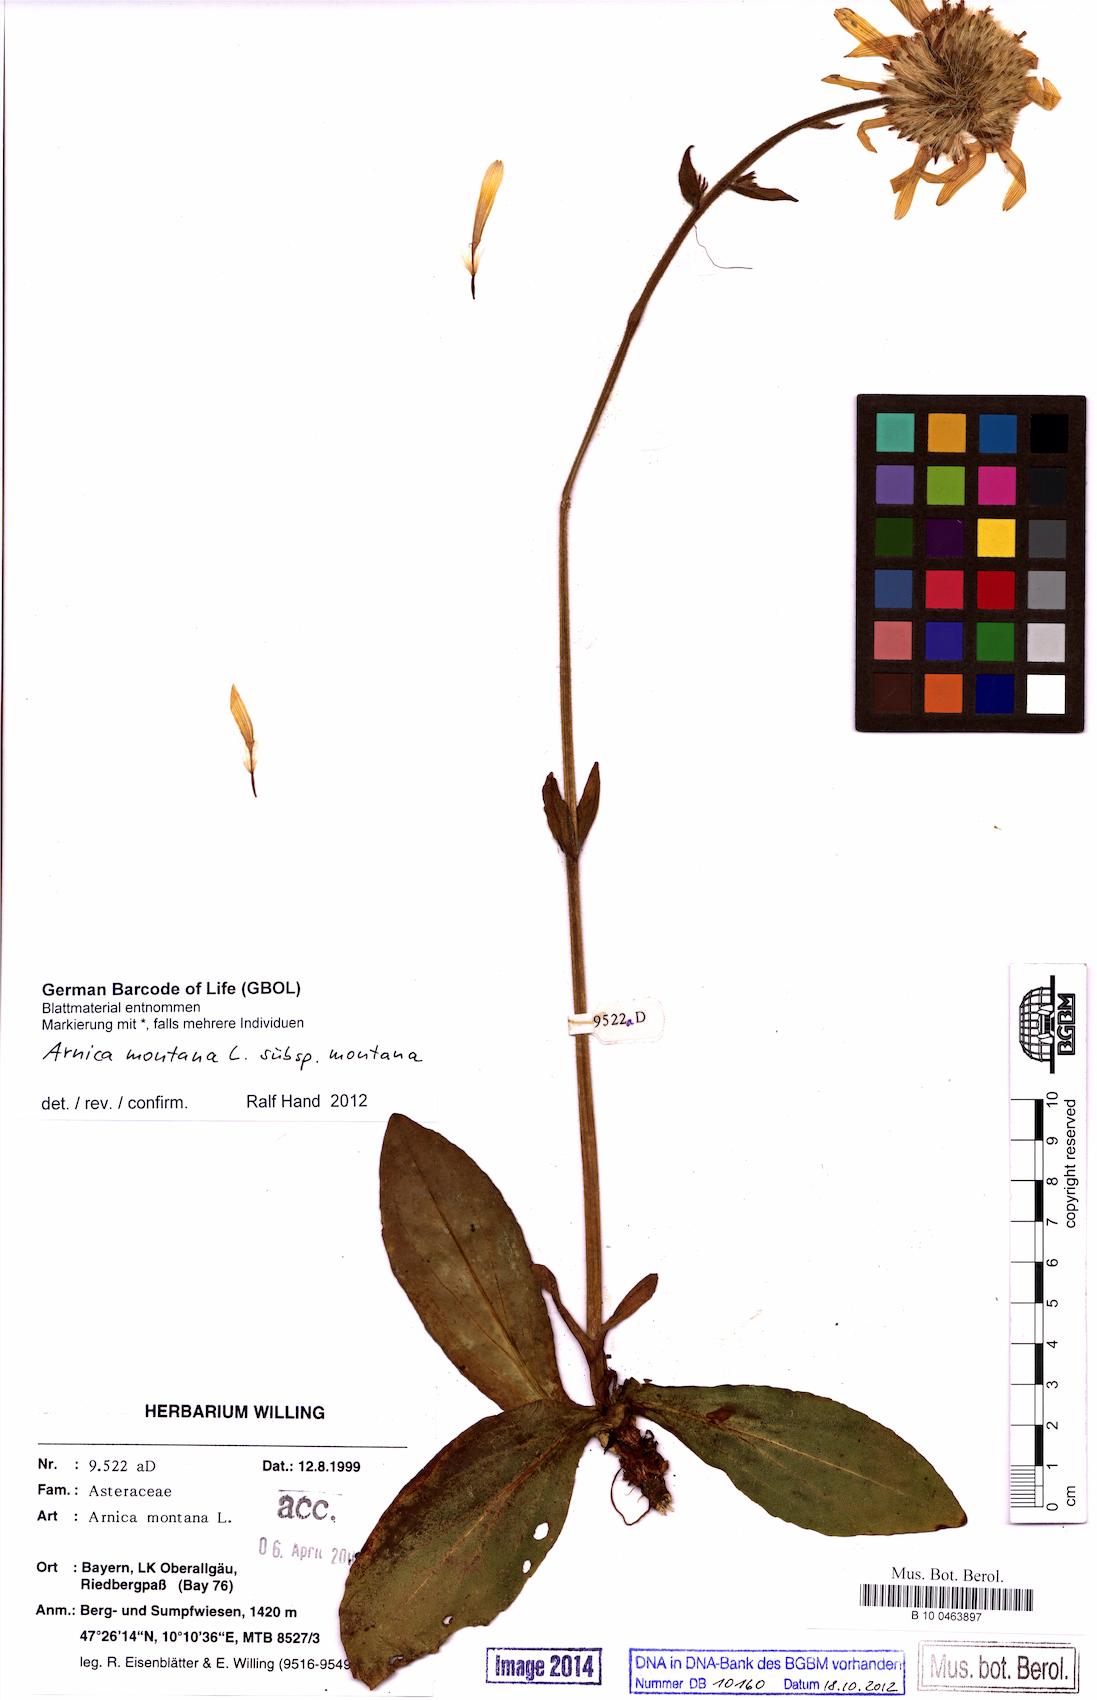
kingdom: Plantae
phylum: Tracheophyta
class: Magnoliopsida
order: Asterales
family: Asteraceae
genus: Arnica
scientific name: Arnica montana
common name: Leopard's bane
